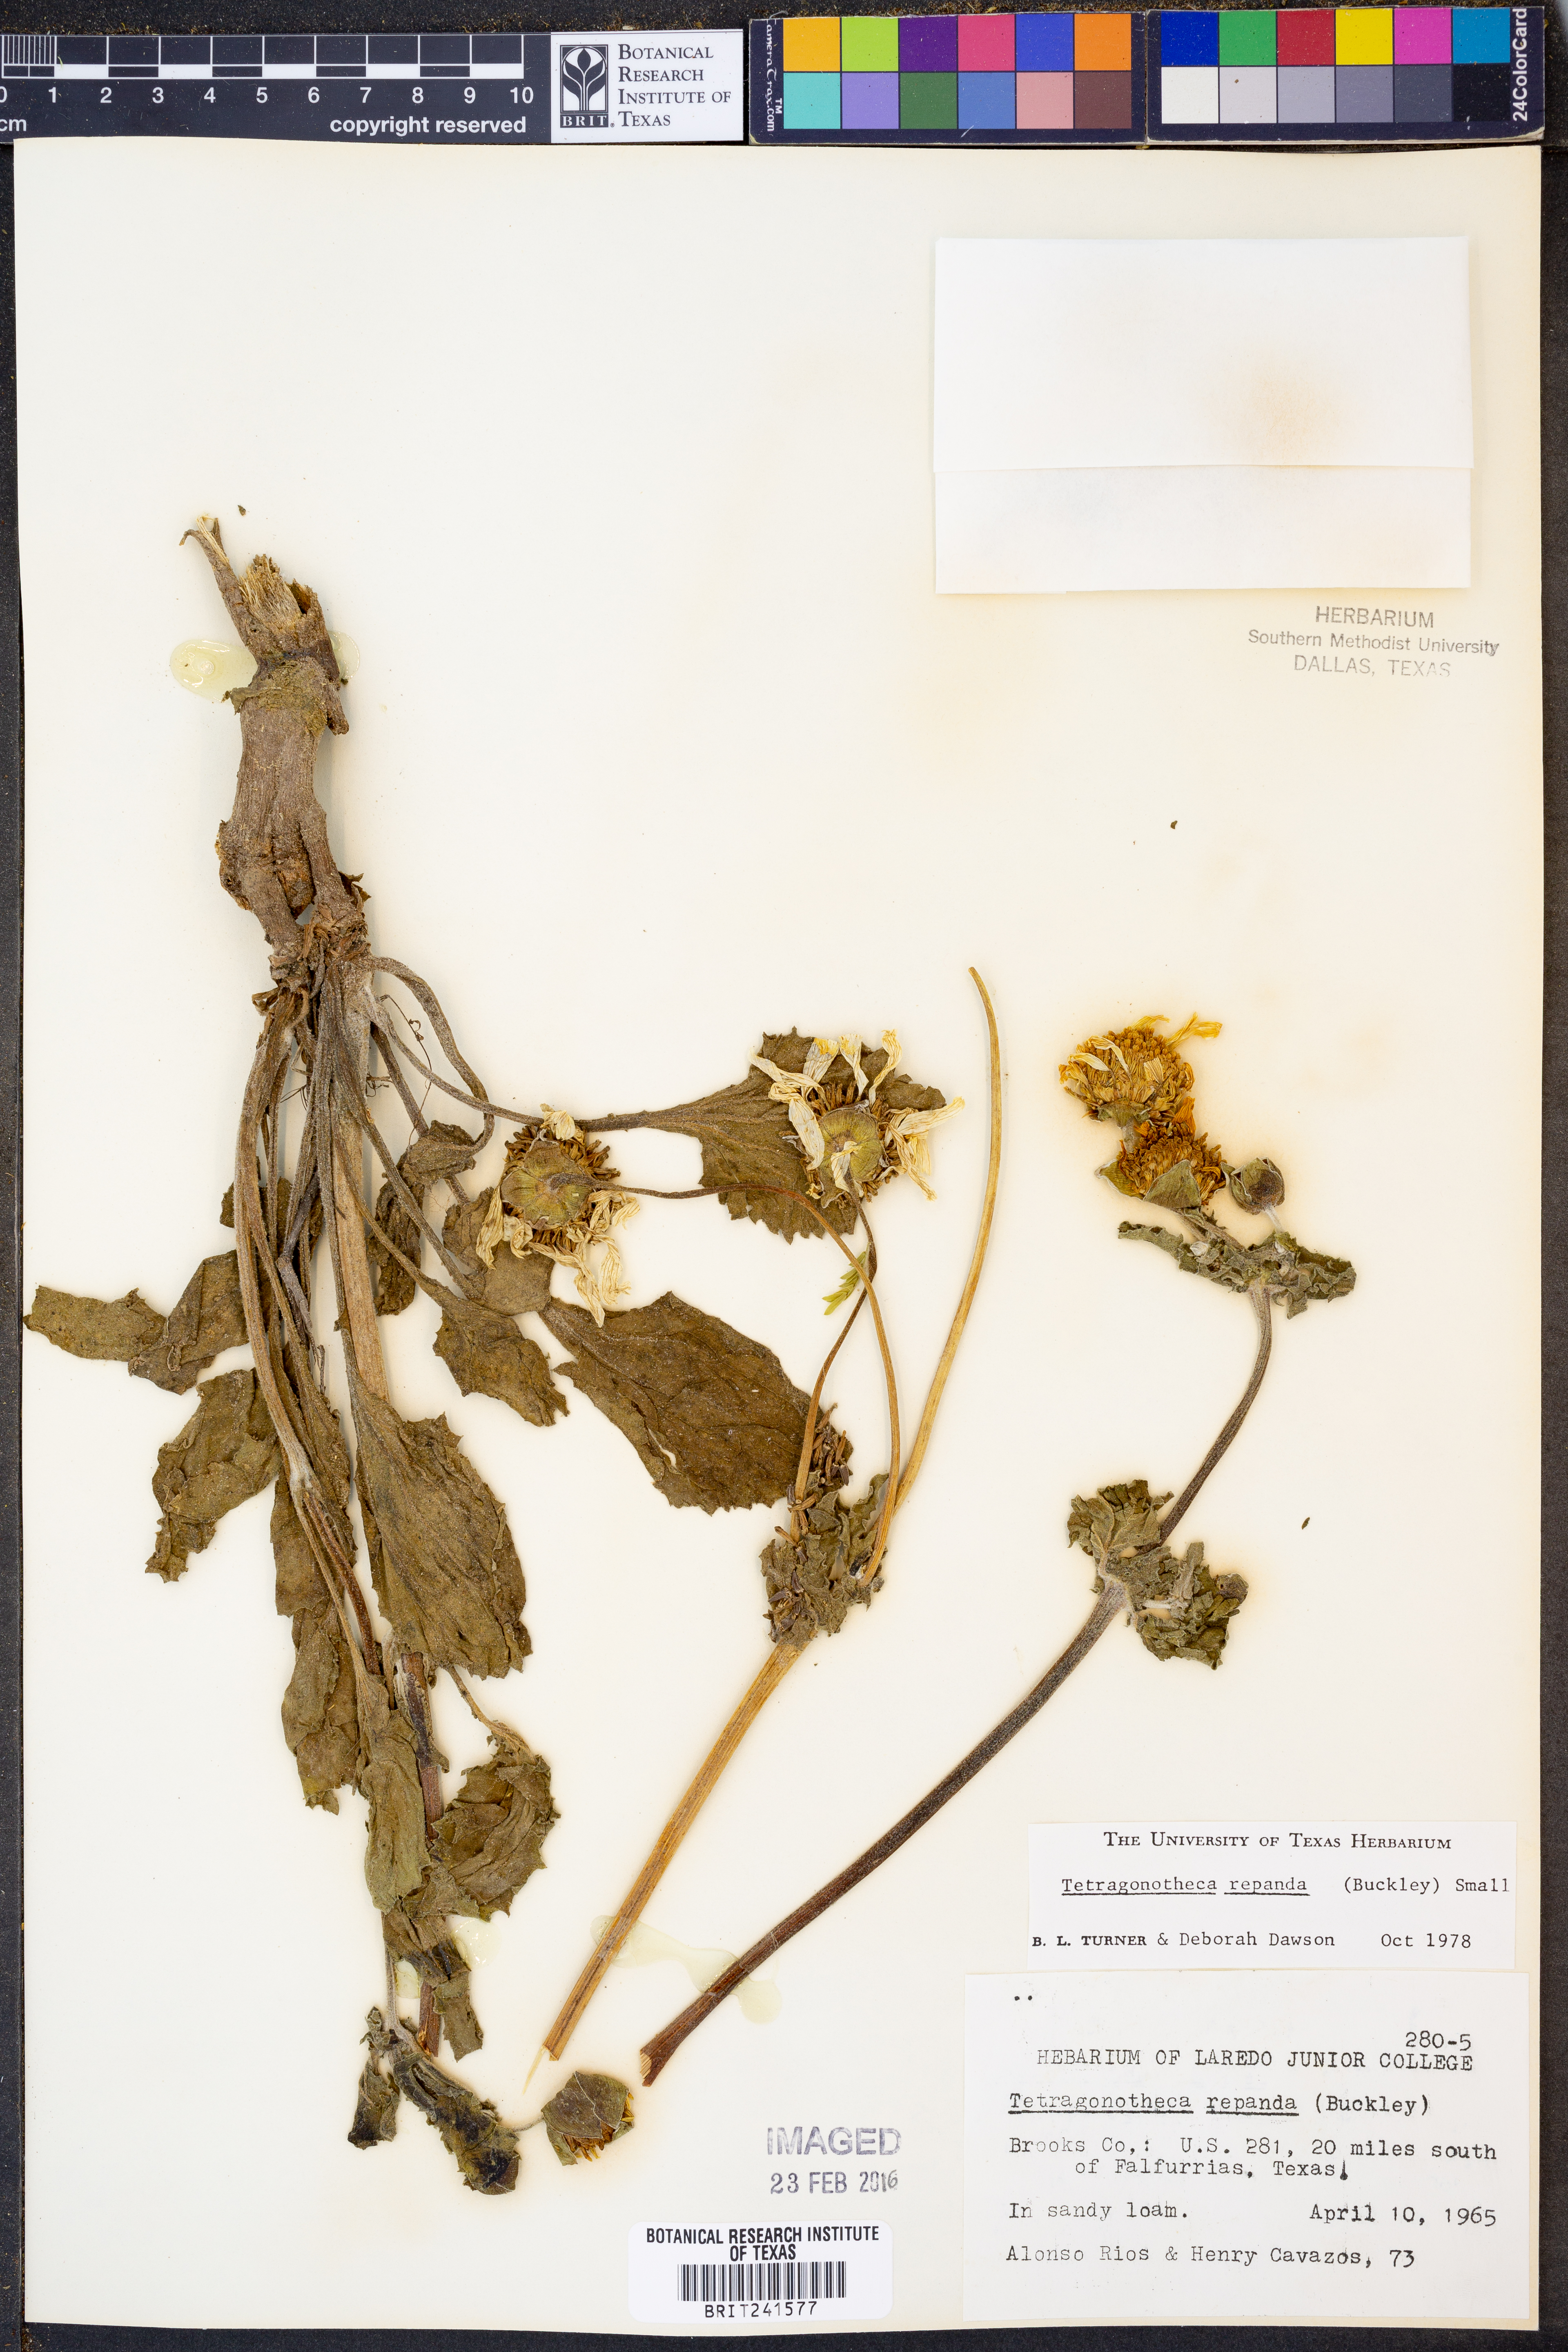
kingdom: Plantae
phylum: Tracheophyta
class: Magnoliopsida
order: Asterales
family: Asteraceae
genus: Tetragonotheca
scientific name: Tetragonotheca repanda
